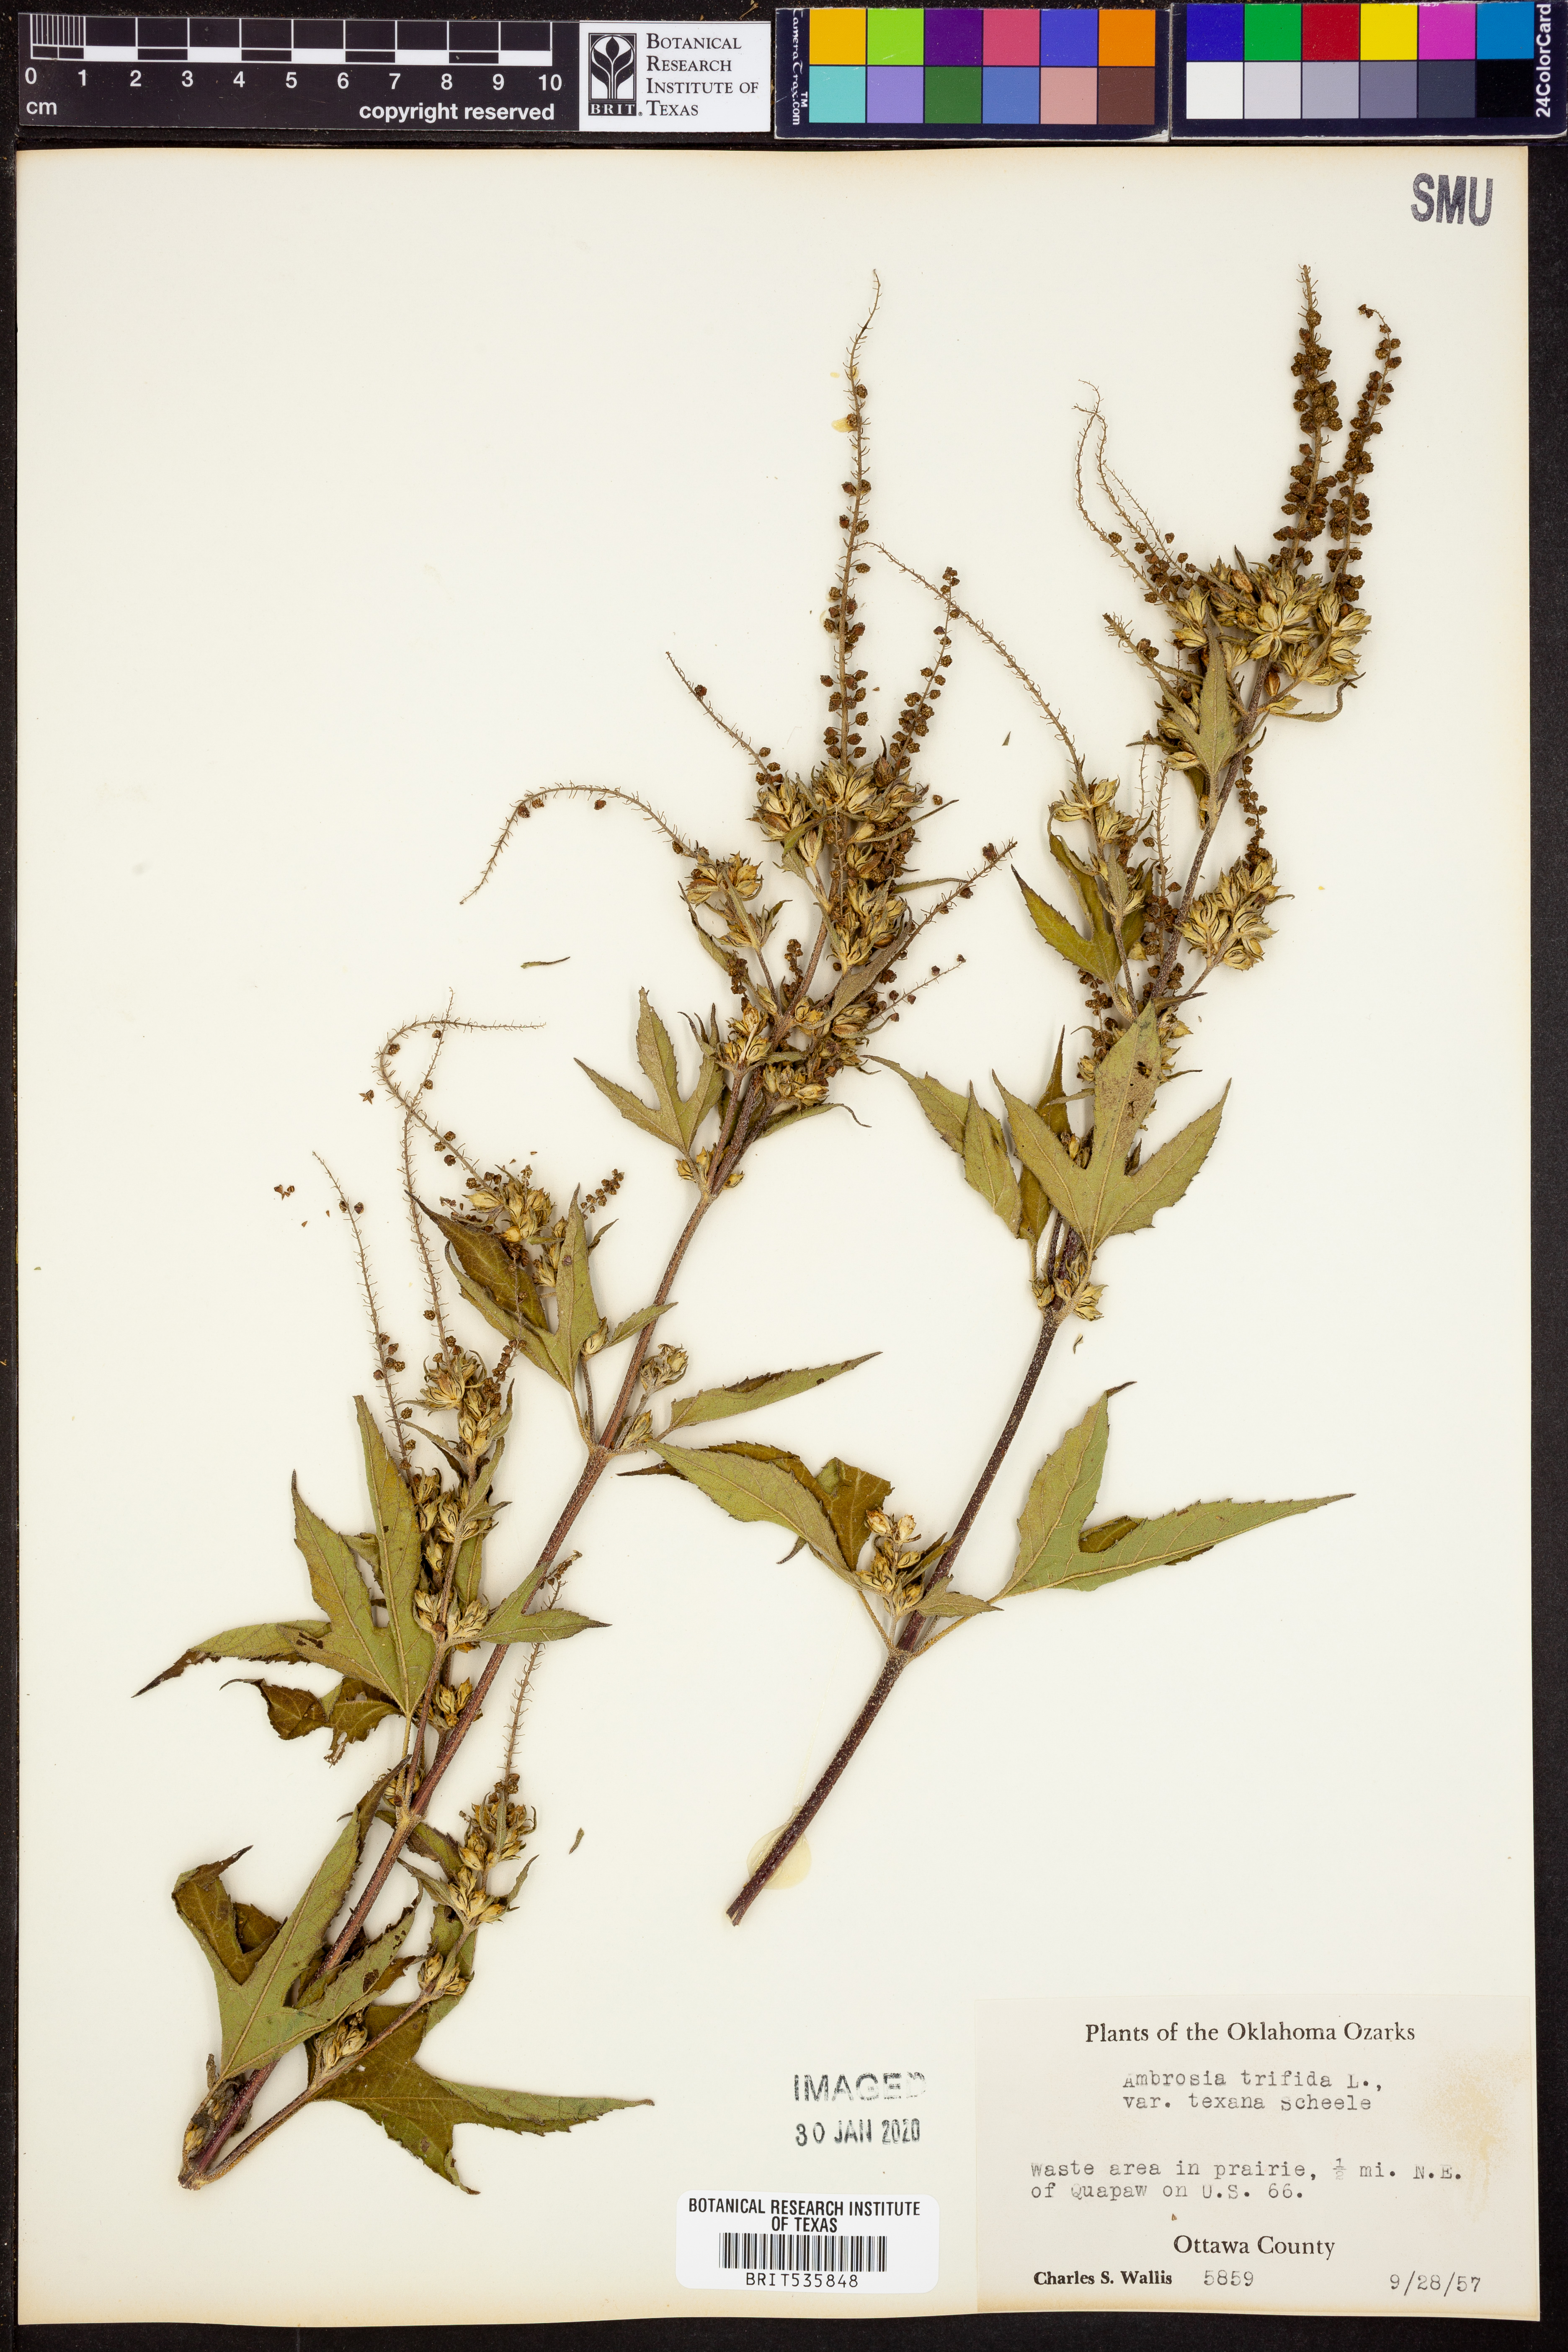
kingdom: Plantae
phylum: Tracheophyta
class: Magnoliopsida
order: Asterales
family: Asteraceae
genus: Ambrosia
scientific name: Ambrosia trifida
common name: Giant ragweed
